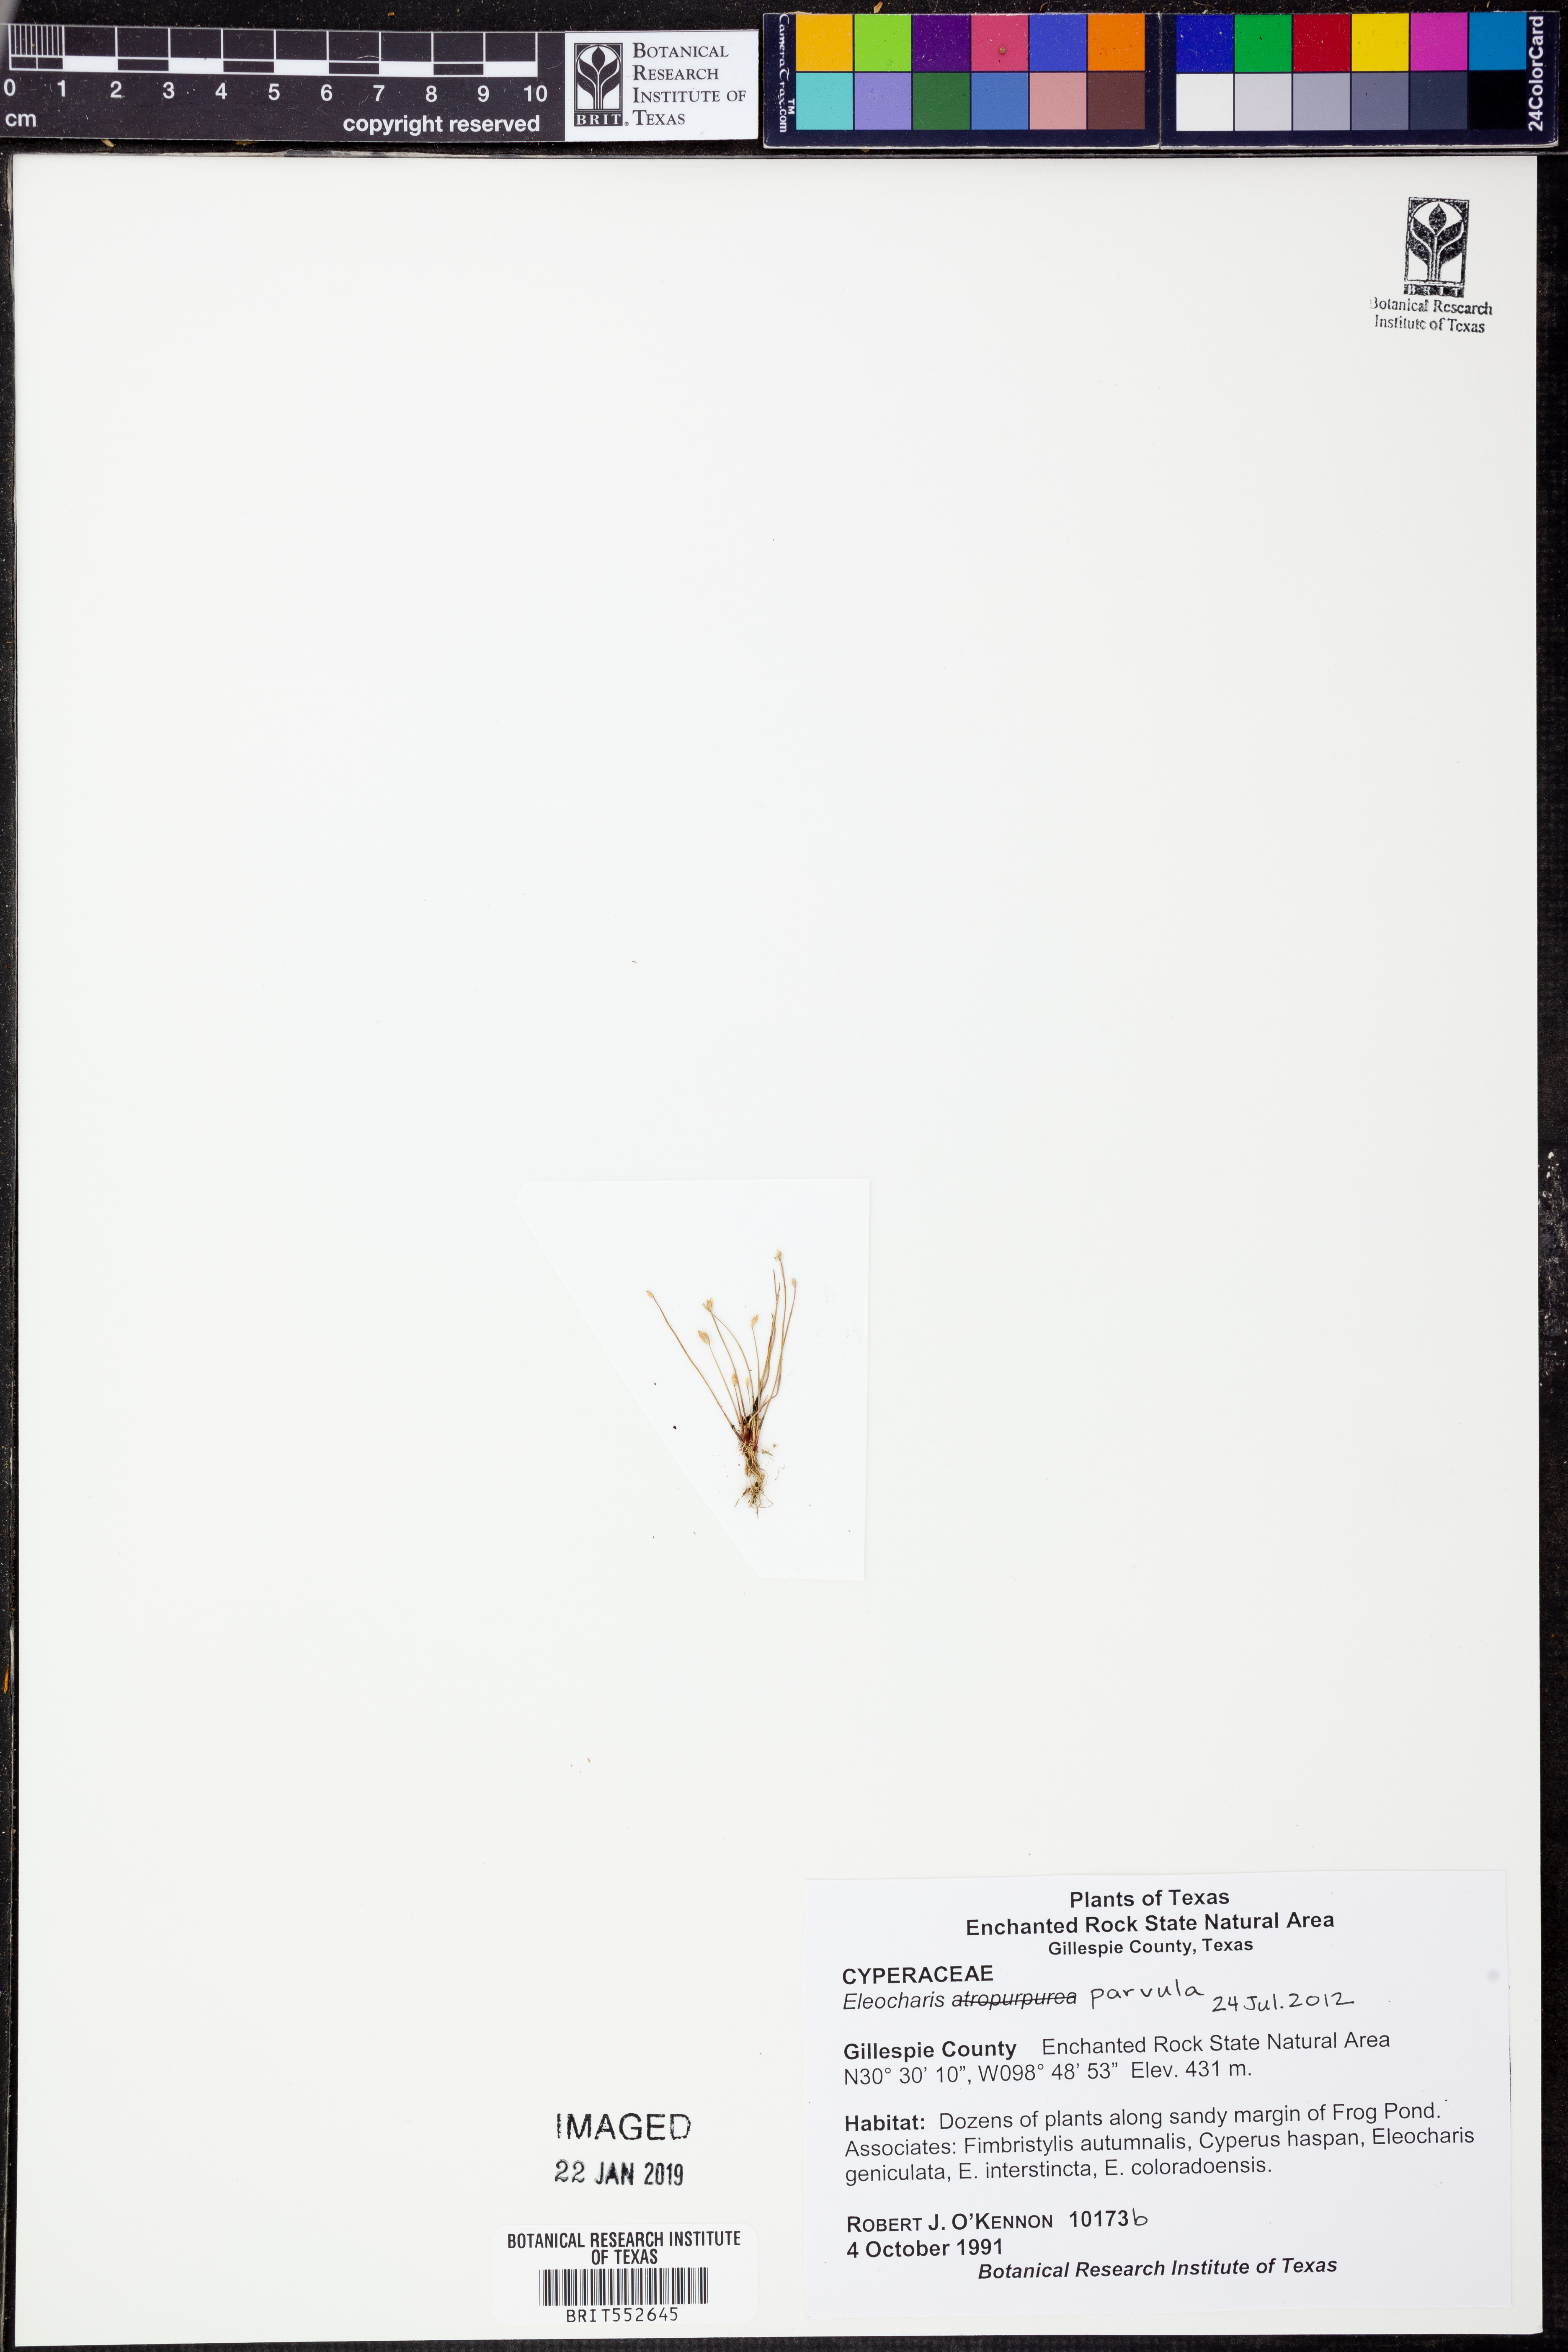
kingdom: Plantae
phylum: Tracheophyta
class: Liliopsida
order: Poales
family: Cyperaceae
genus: Eleocharis
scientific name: Eleocharis parvula
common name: Dwarf spike-rush
